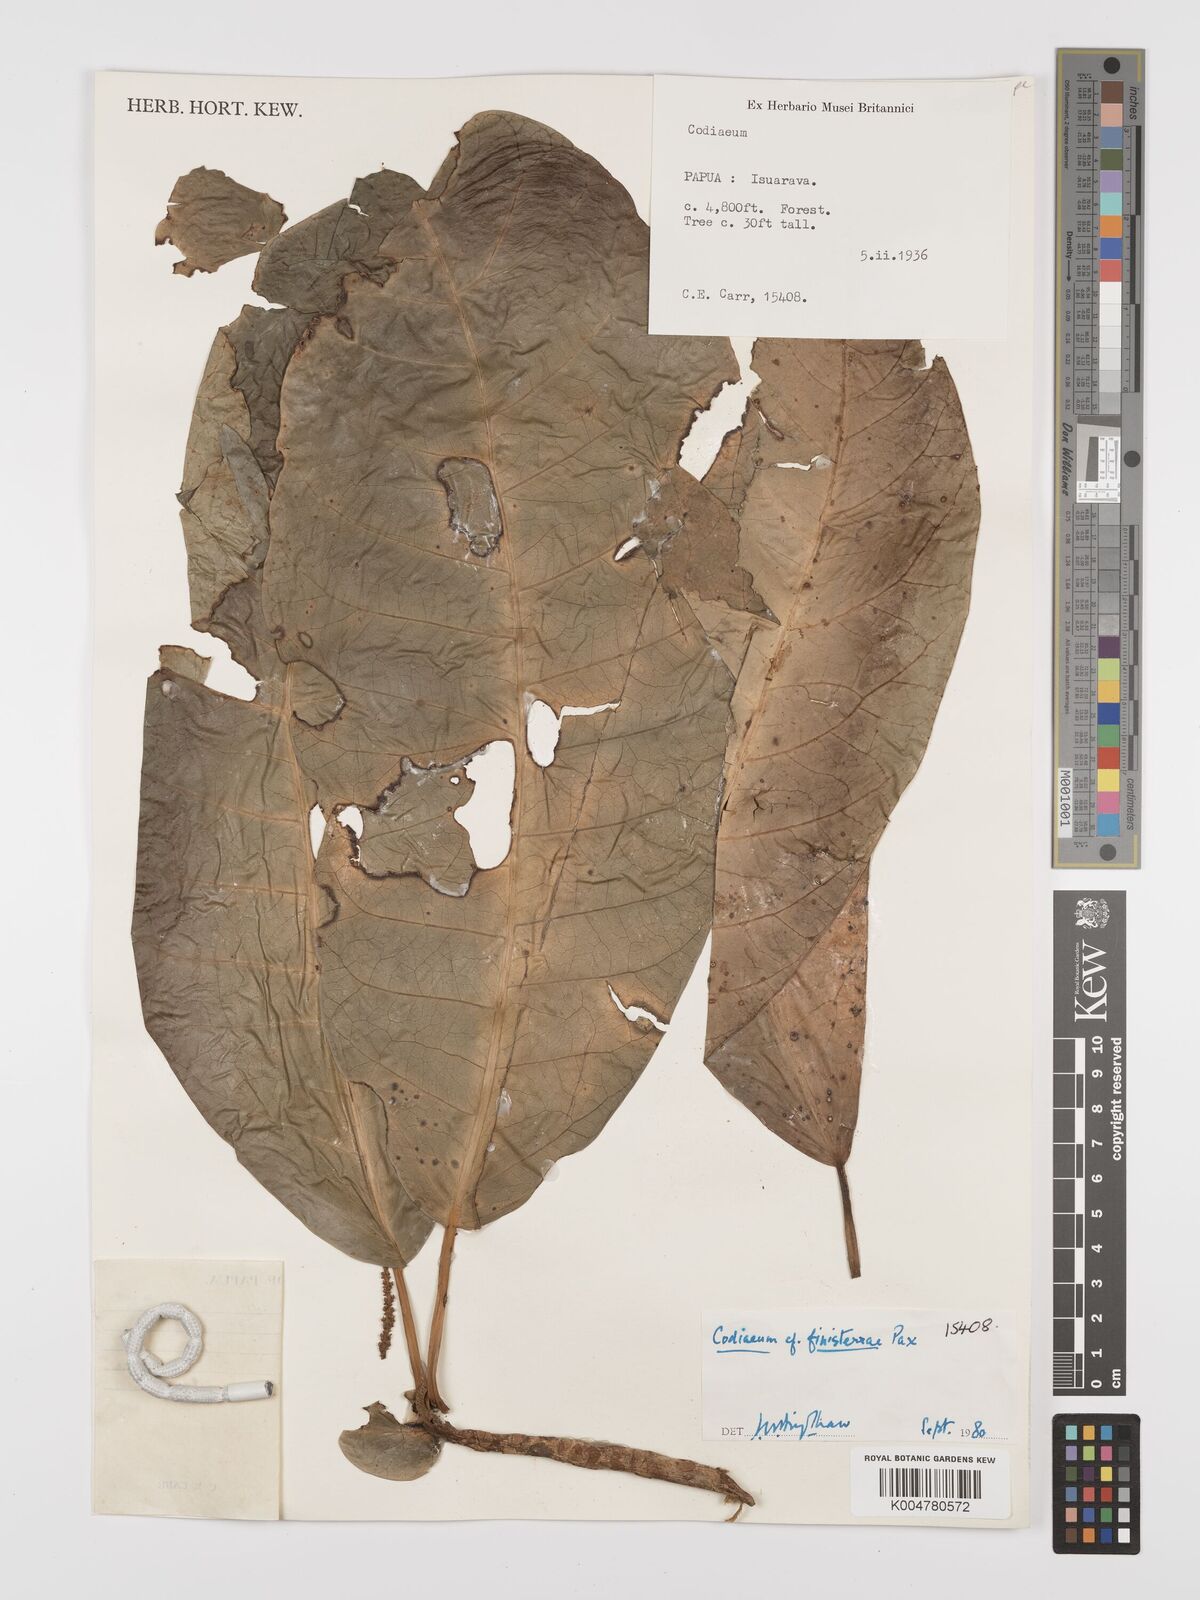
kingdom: Plantae
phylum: Tracheophyta
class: Magnoliopsida
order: Malpighiales
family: Euphorbiaceae
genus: Codiaeum
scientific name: Codiaeum finisterrae
